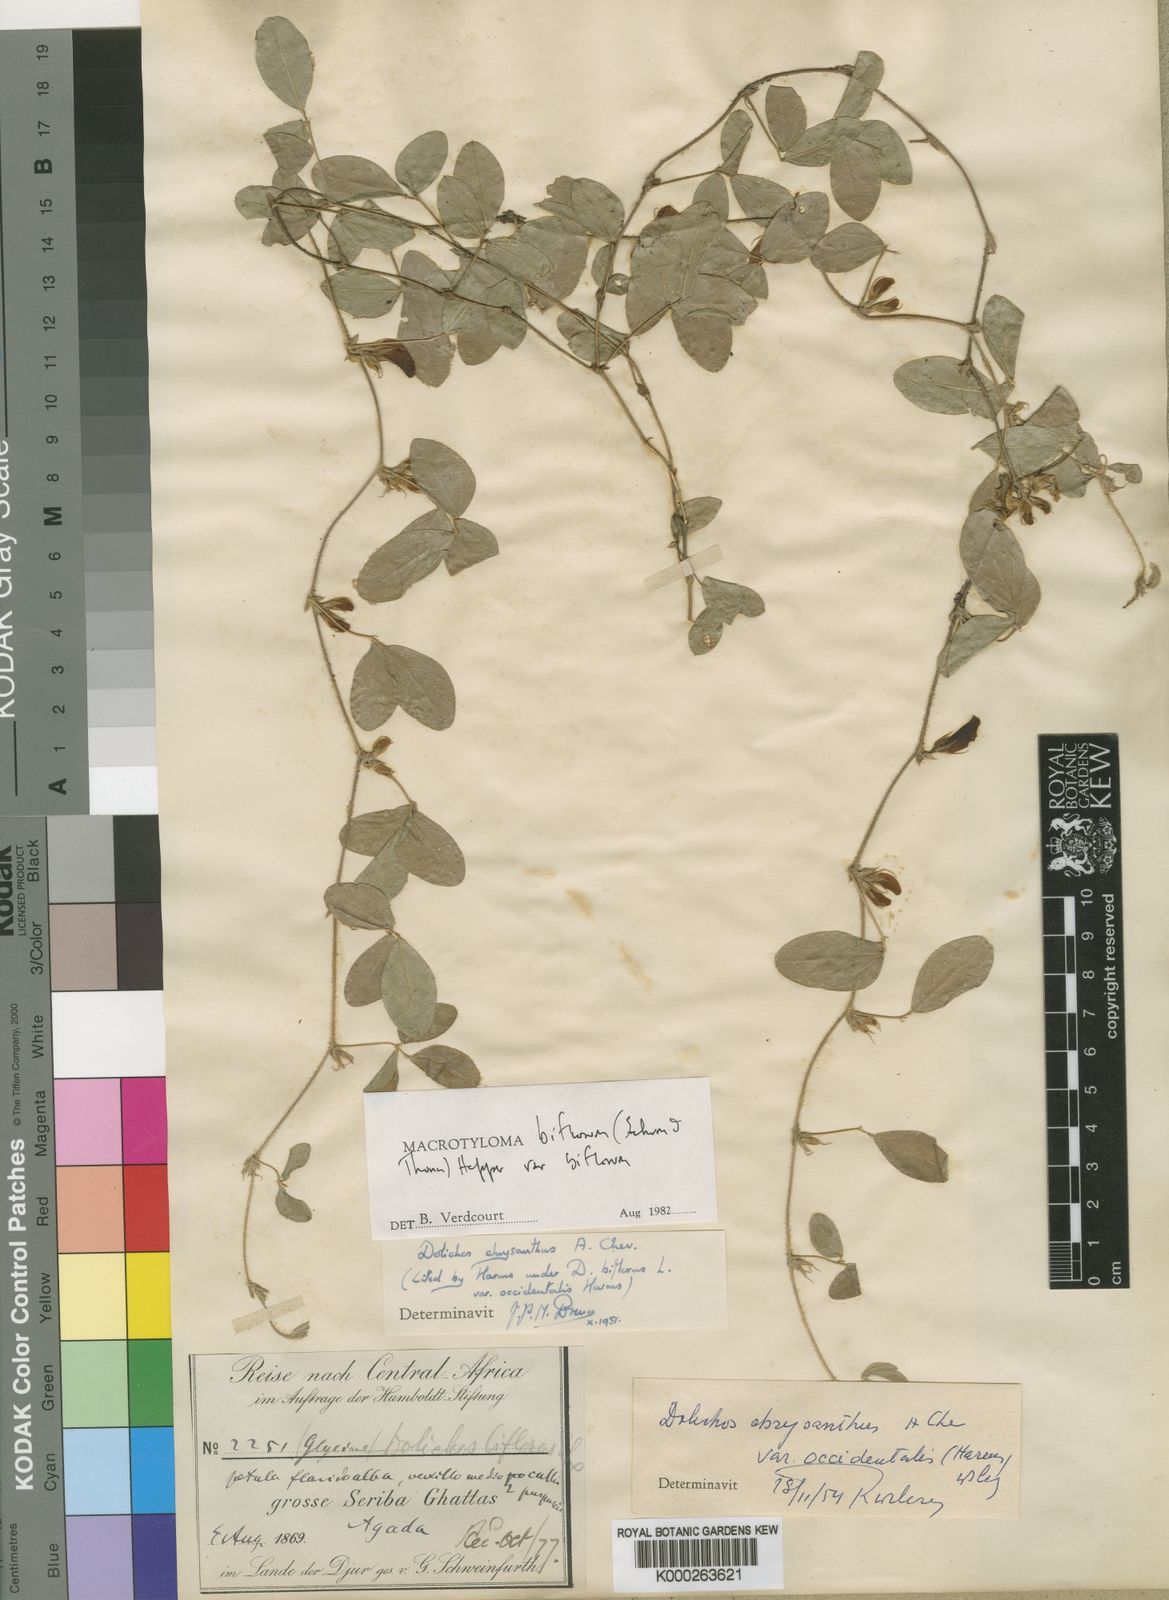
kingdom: Plantae
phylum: Tracheophyta
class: Magnoliopsida
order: Fabales
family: Fabaceae
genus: Macrotyloma
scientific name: Macrotyloma biflorum
